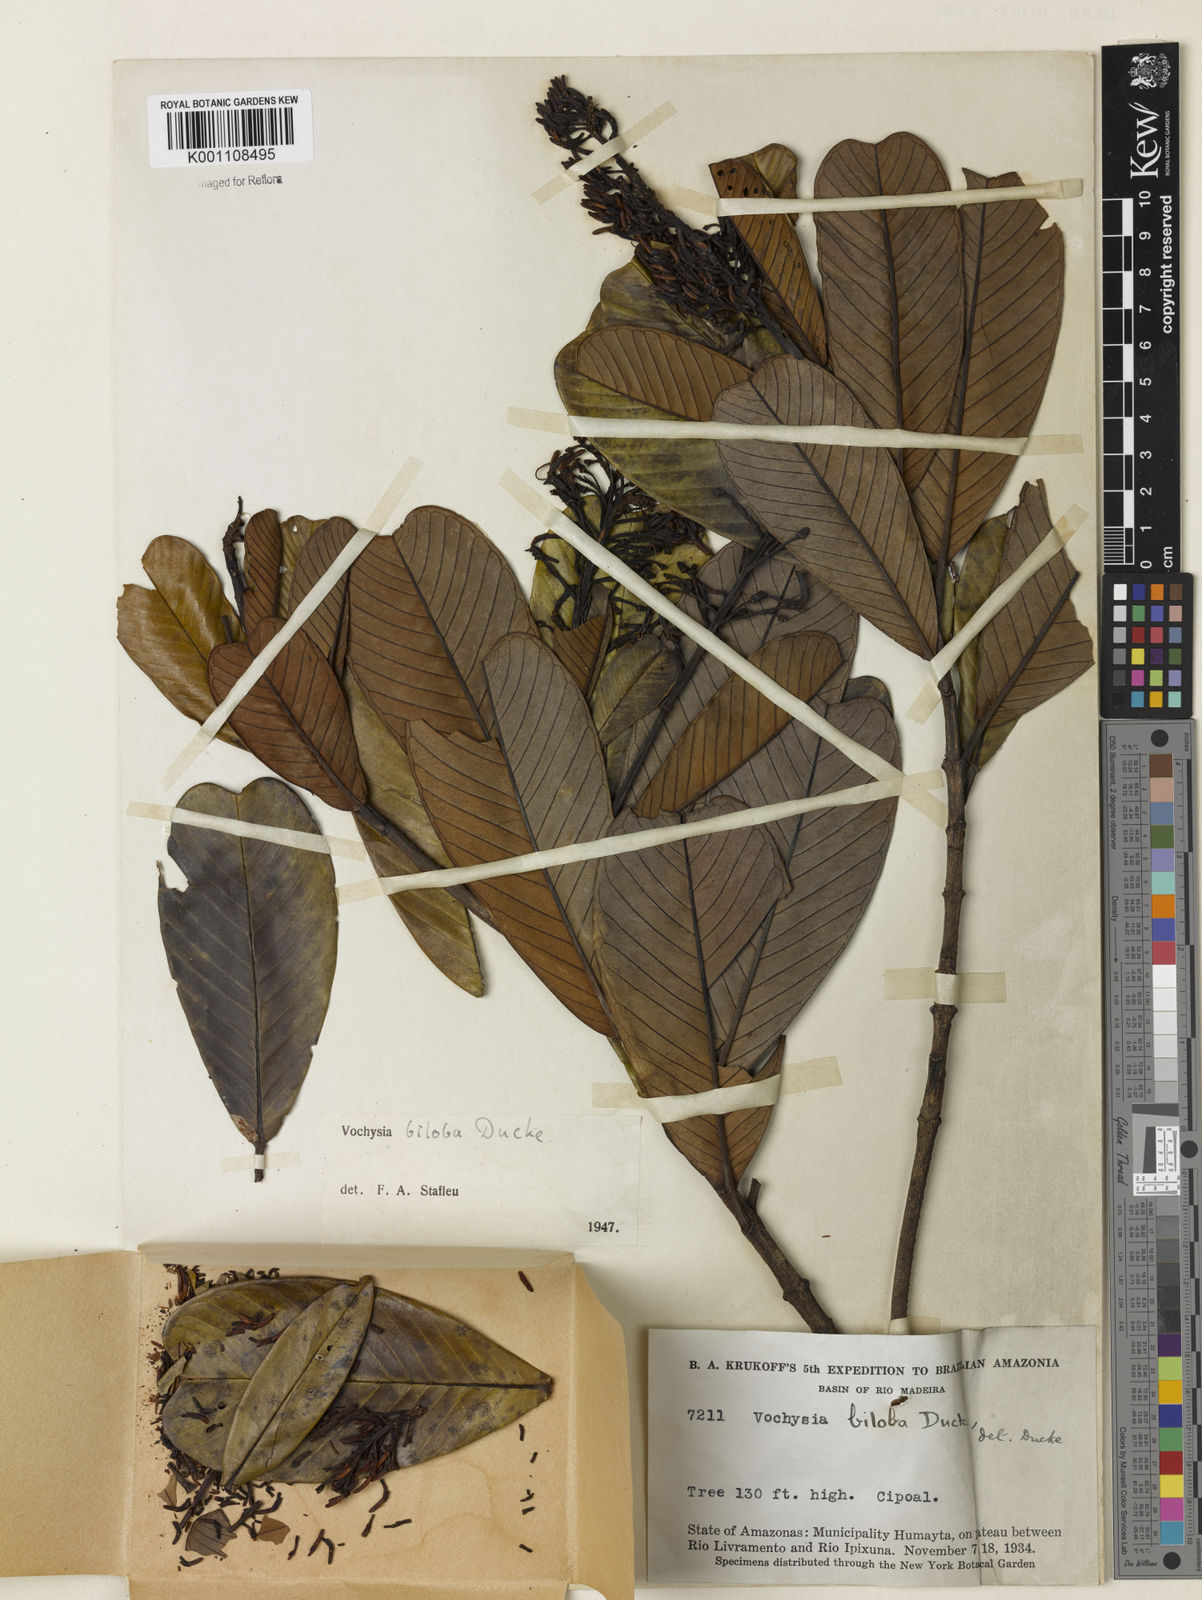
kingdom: Plantae
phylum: Tracheophyta
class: Magnoliopsida
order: Myrtales
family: Vochysiaceae
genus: Vochysia
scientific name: Vochysia biloba
